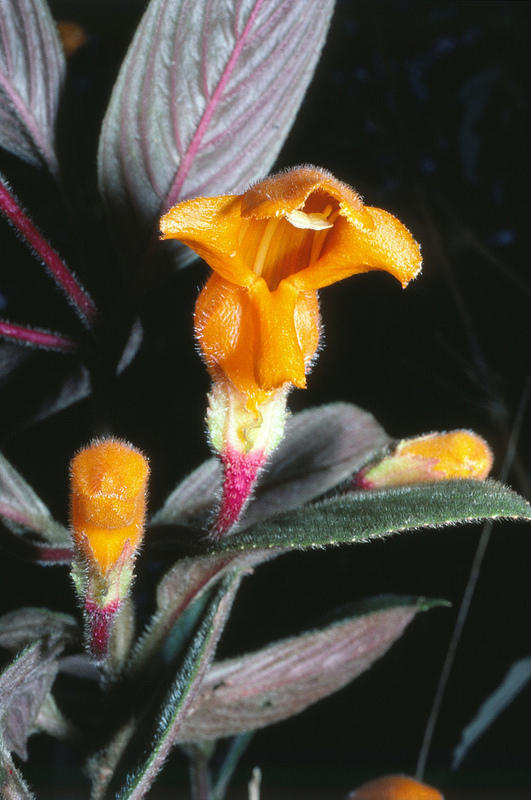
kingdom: Plantae
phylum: Tracheophyta
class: Magnoliopsida
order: Lamiales
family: Gesneriaceae
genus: Columnea
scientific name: Columnea strigosa
